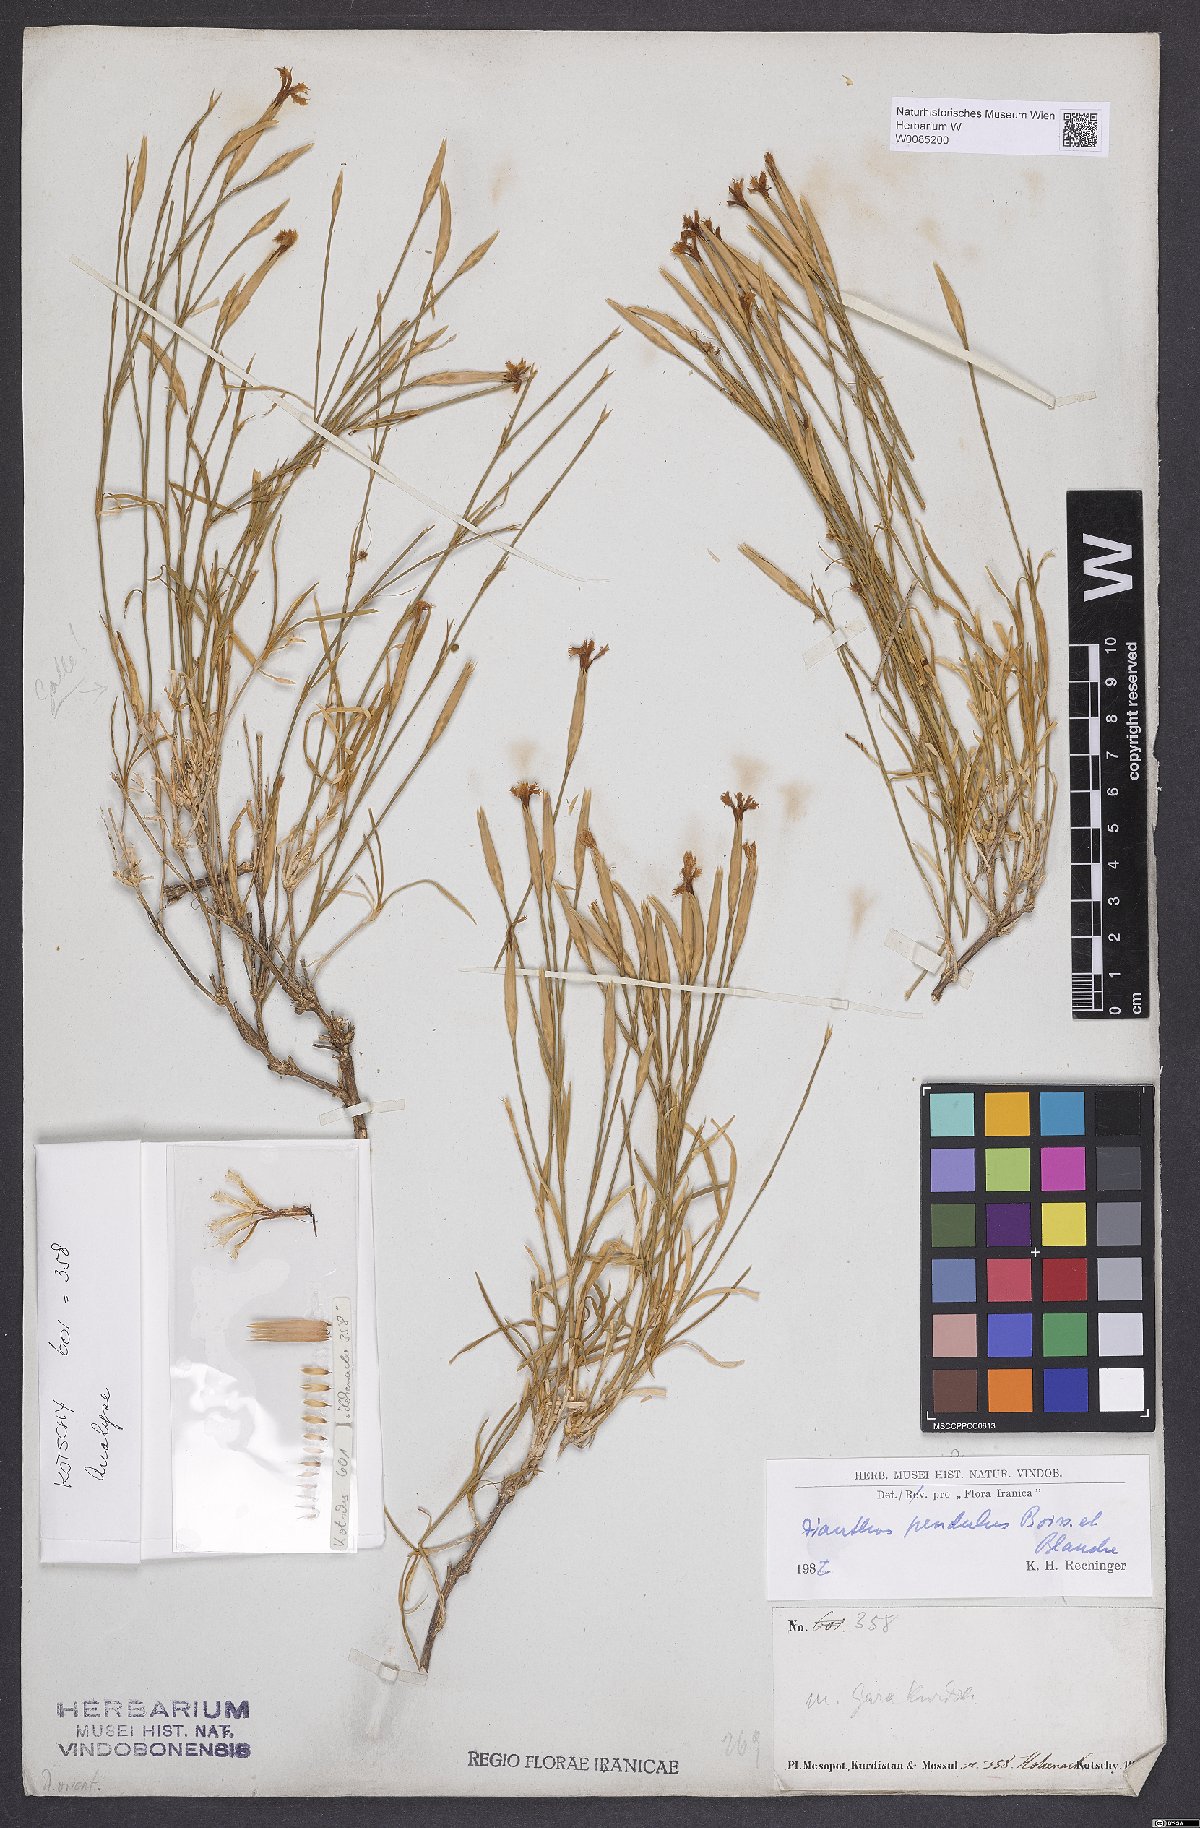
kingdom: Plantae
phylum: Tracheophyta
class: Magnoliopsida
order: Caryophyllales
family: Caryophyllaceae
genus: Dianthus
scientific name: Dianthus pendulus
